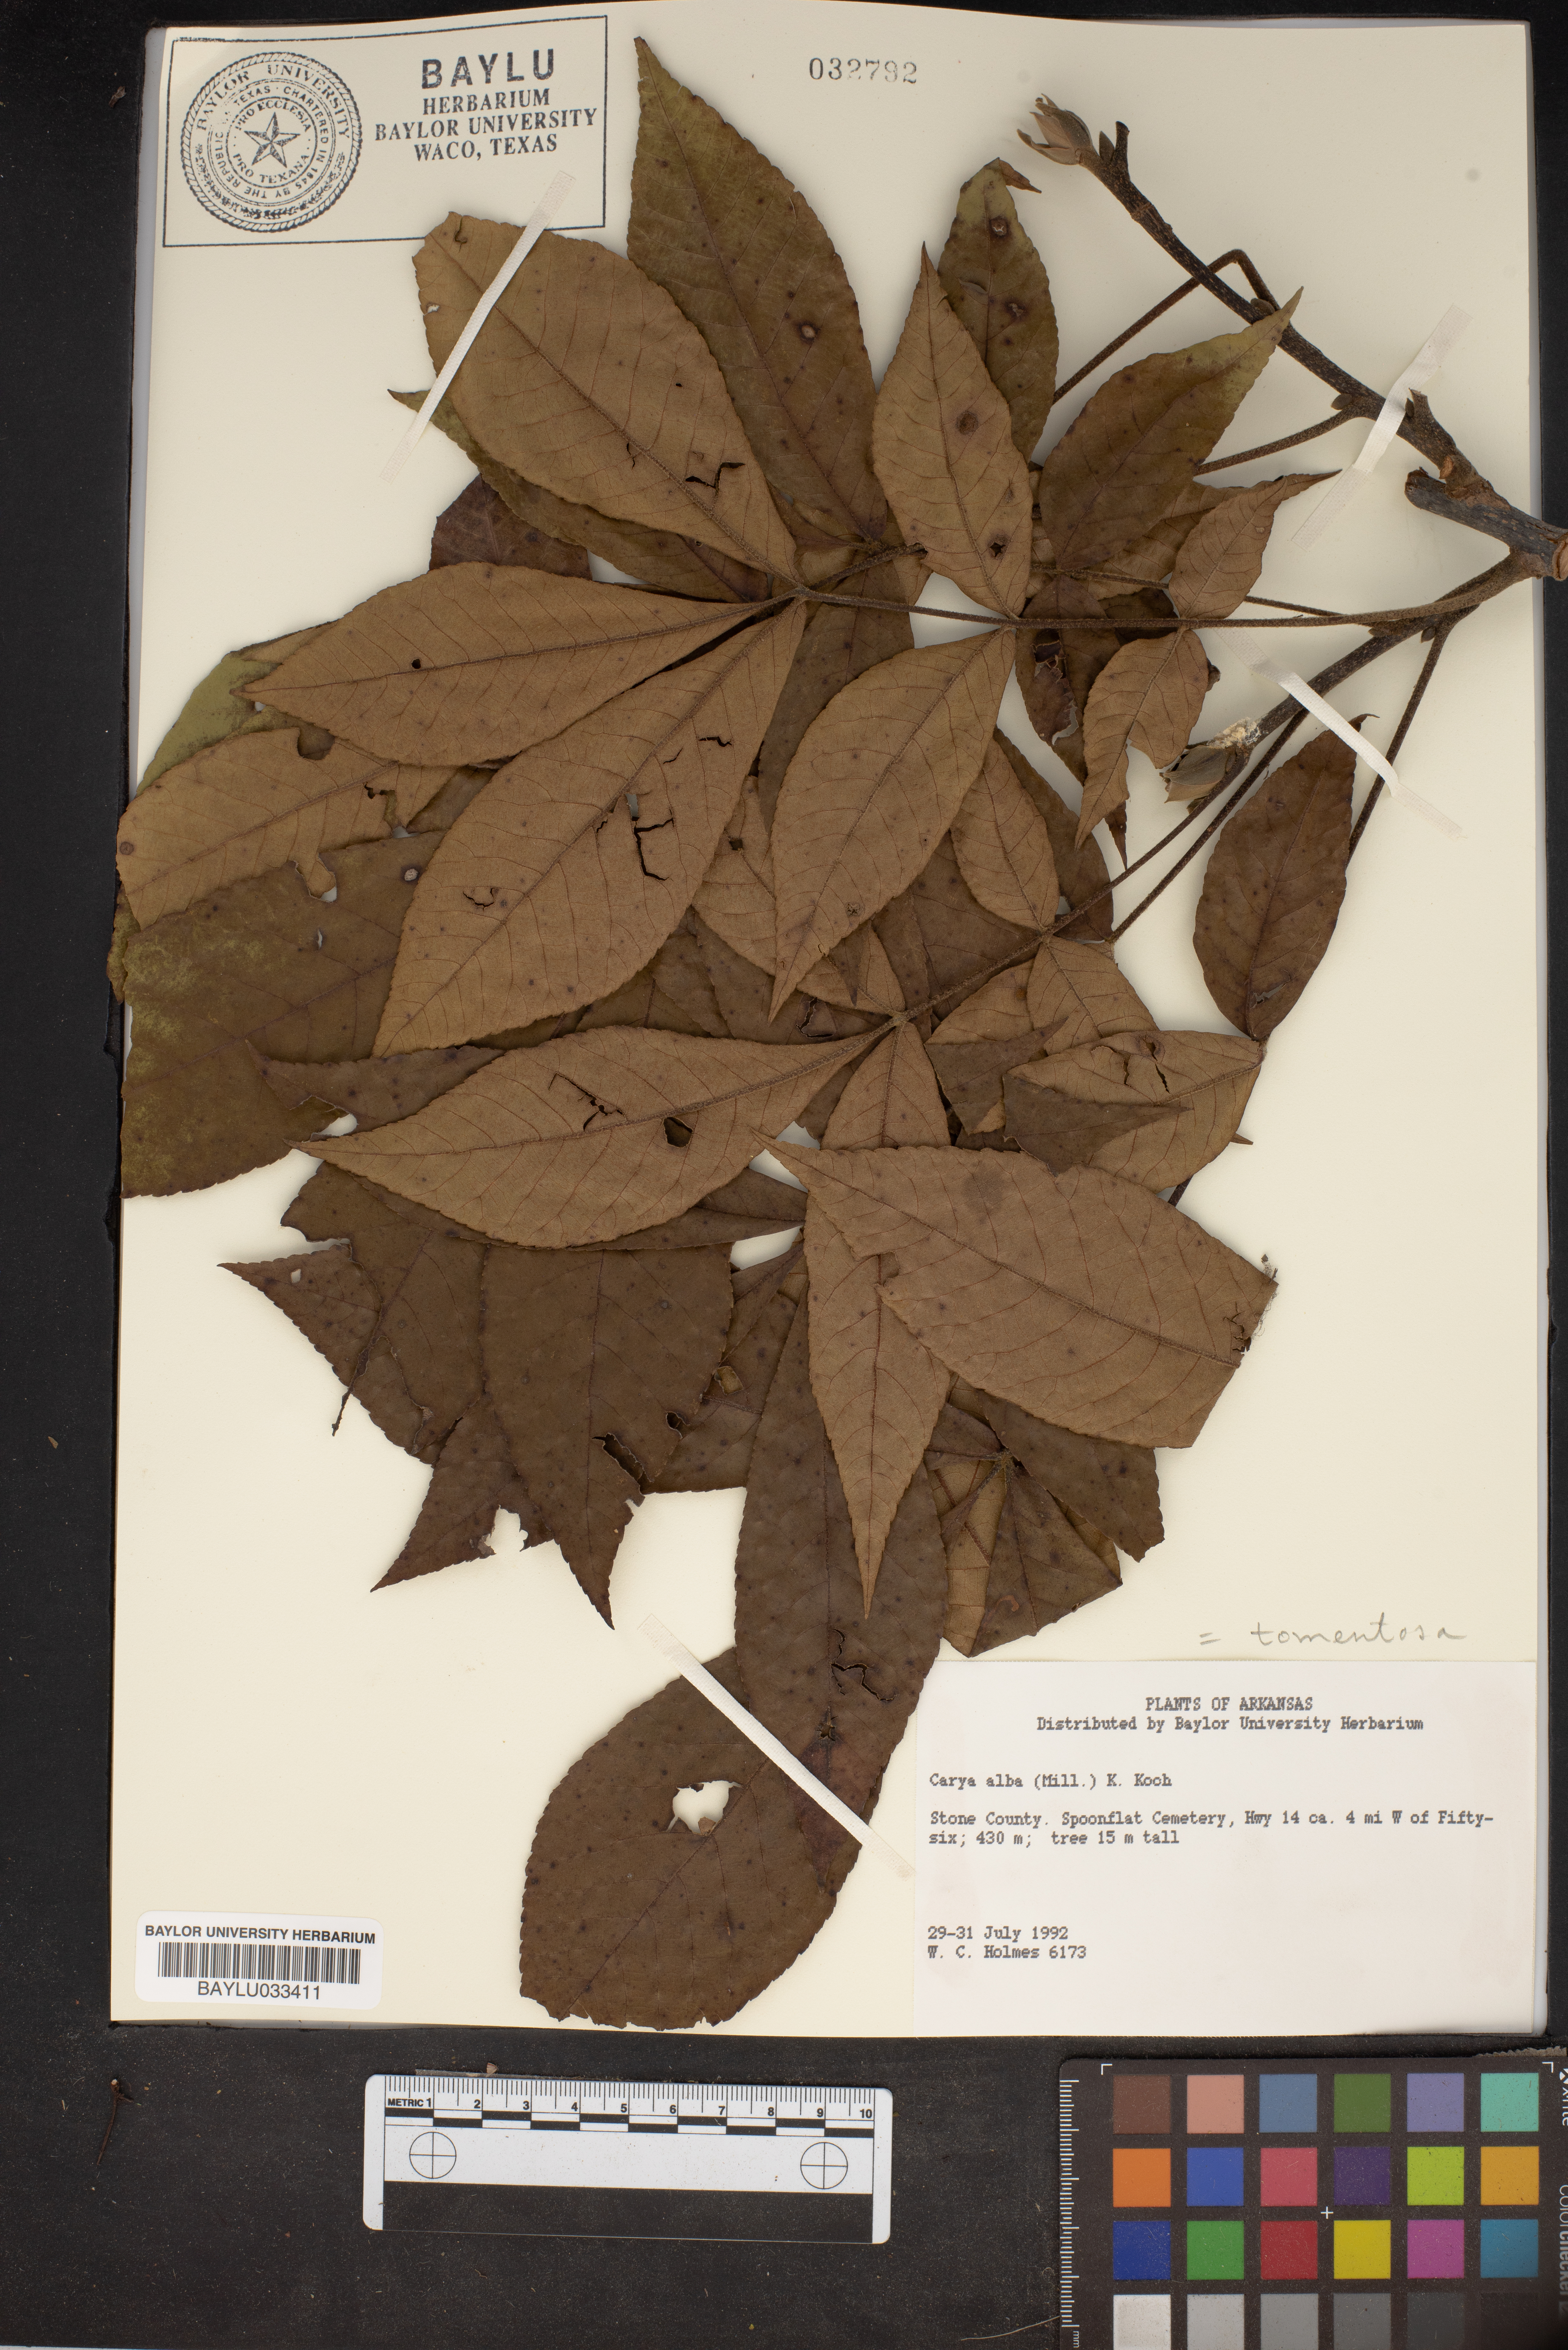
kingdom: Plantae
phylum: Tracheophyta
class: Magnoliopsida
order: Fagales
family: Juglandaceae
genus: Carya
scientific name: Carya alba
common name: Mockernut hickory
